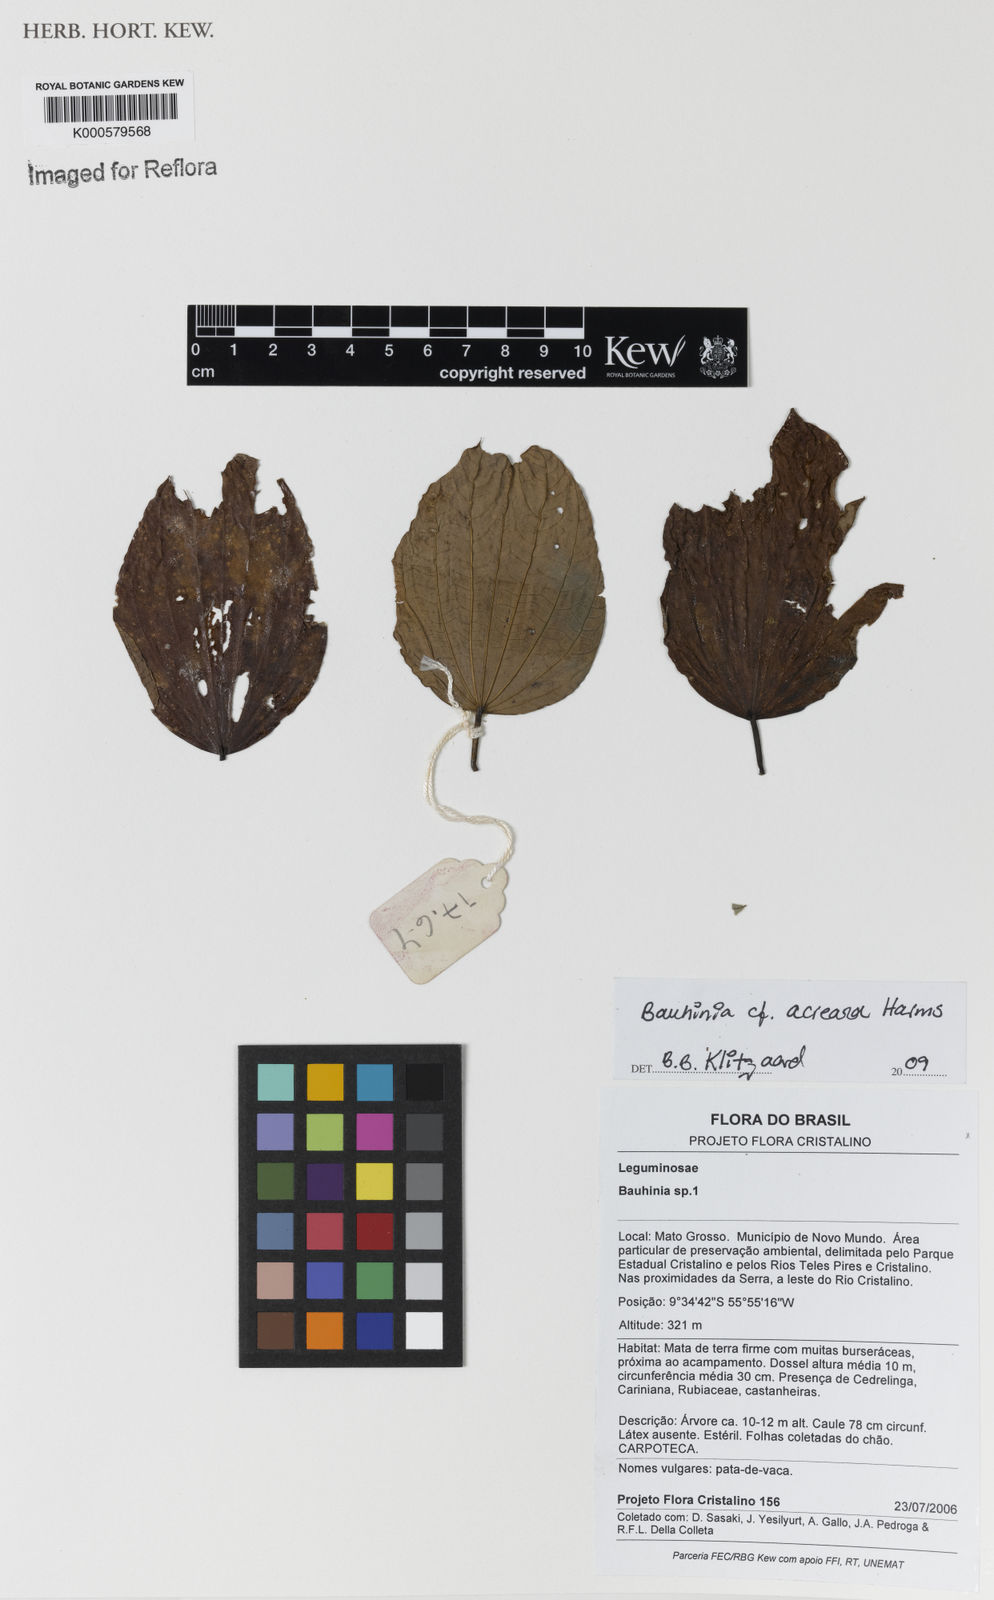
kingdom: Plantae
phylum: Tracheophyta
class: Magnoliopsida
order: Fabales
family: Fabaceae
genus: Bauhinia
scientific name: Bauhinia acreana
